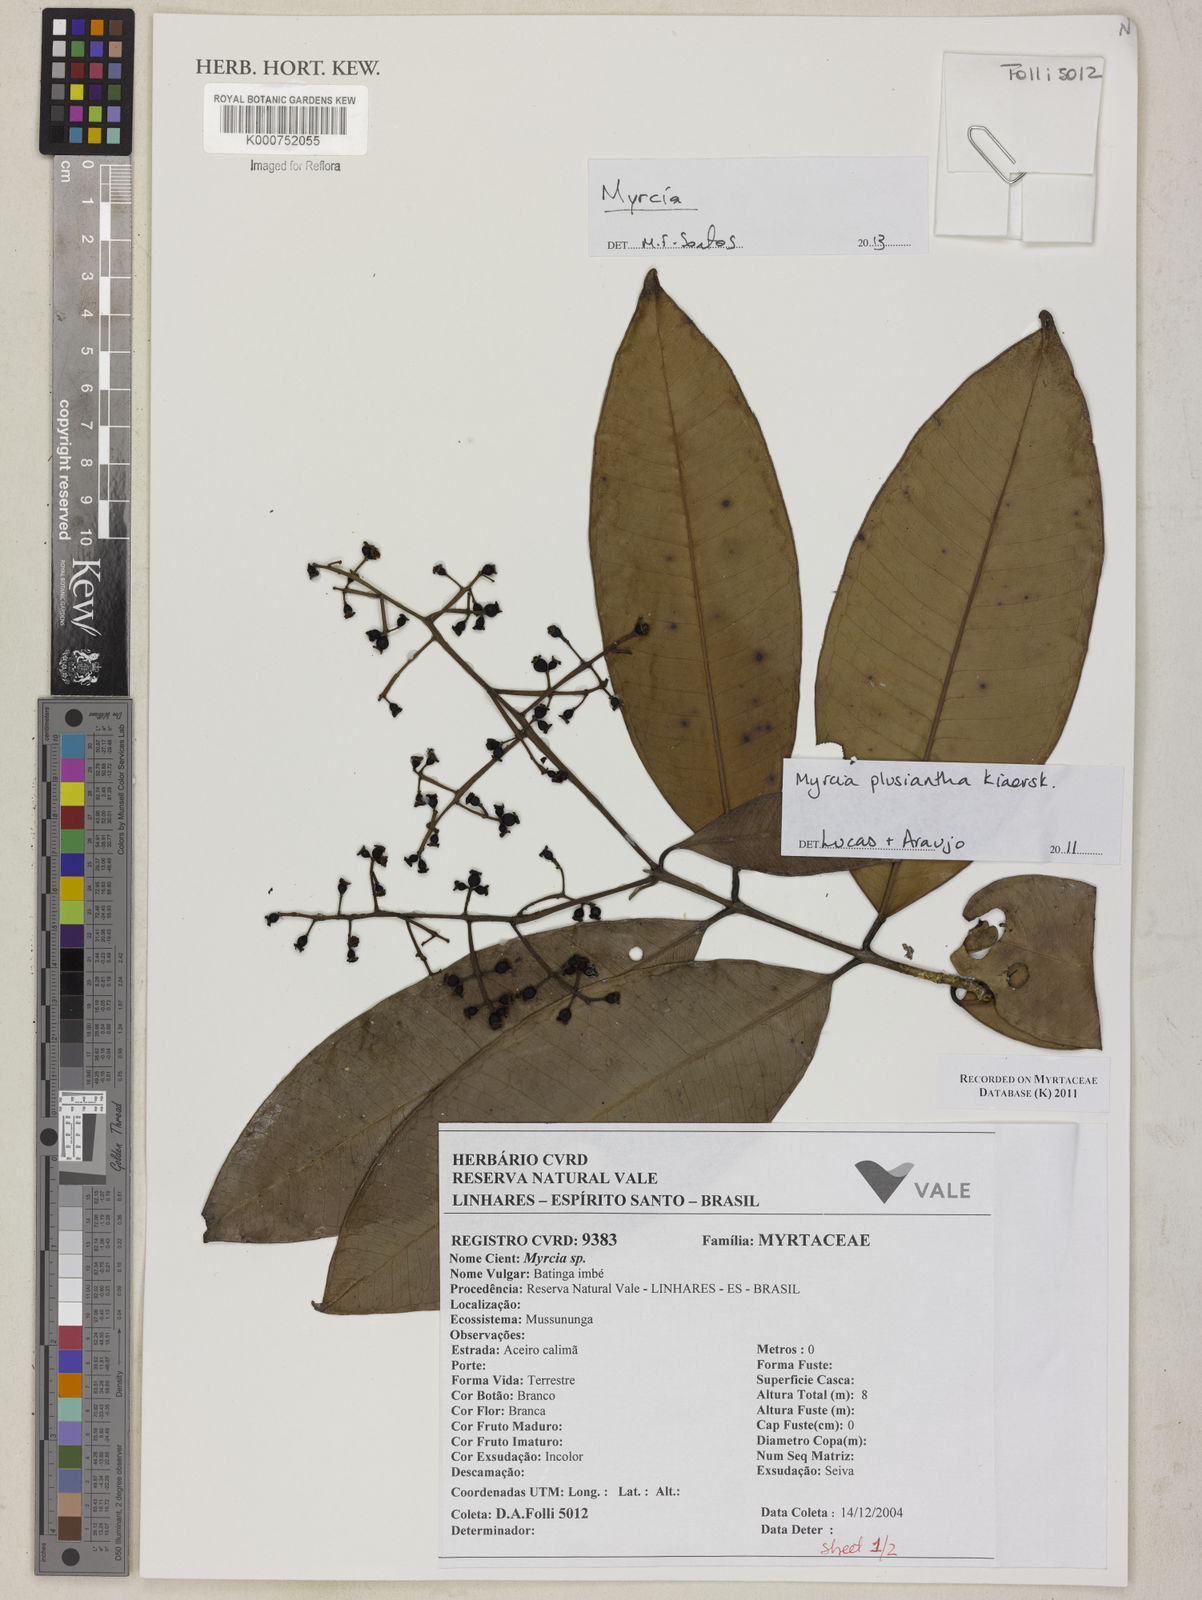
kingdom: Plantae
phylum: Tracheophyta
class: Magnoliopsida
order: Myrtales
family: Myrtaceae
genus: Myrcia
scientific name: Myrcia plusiantha
